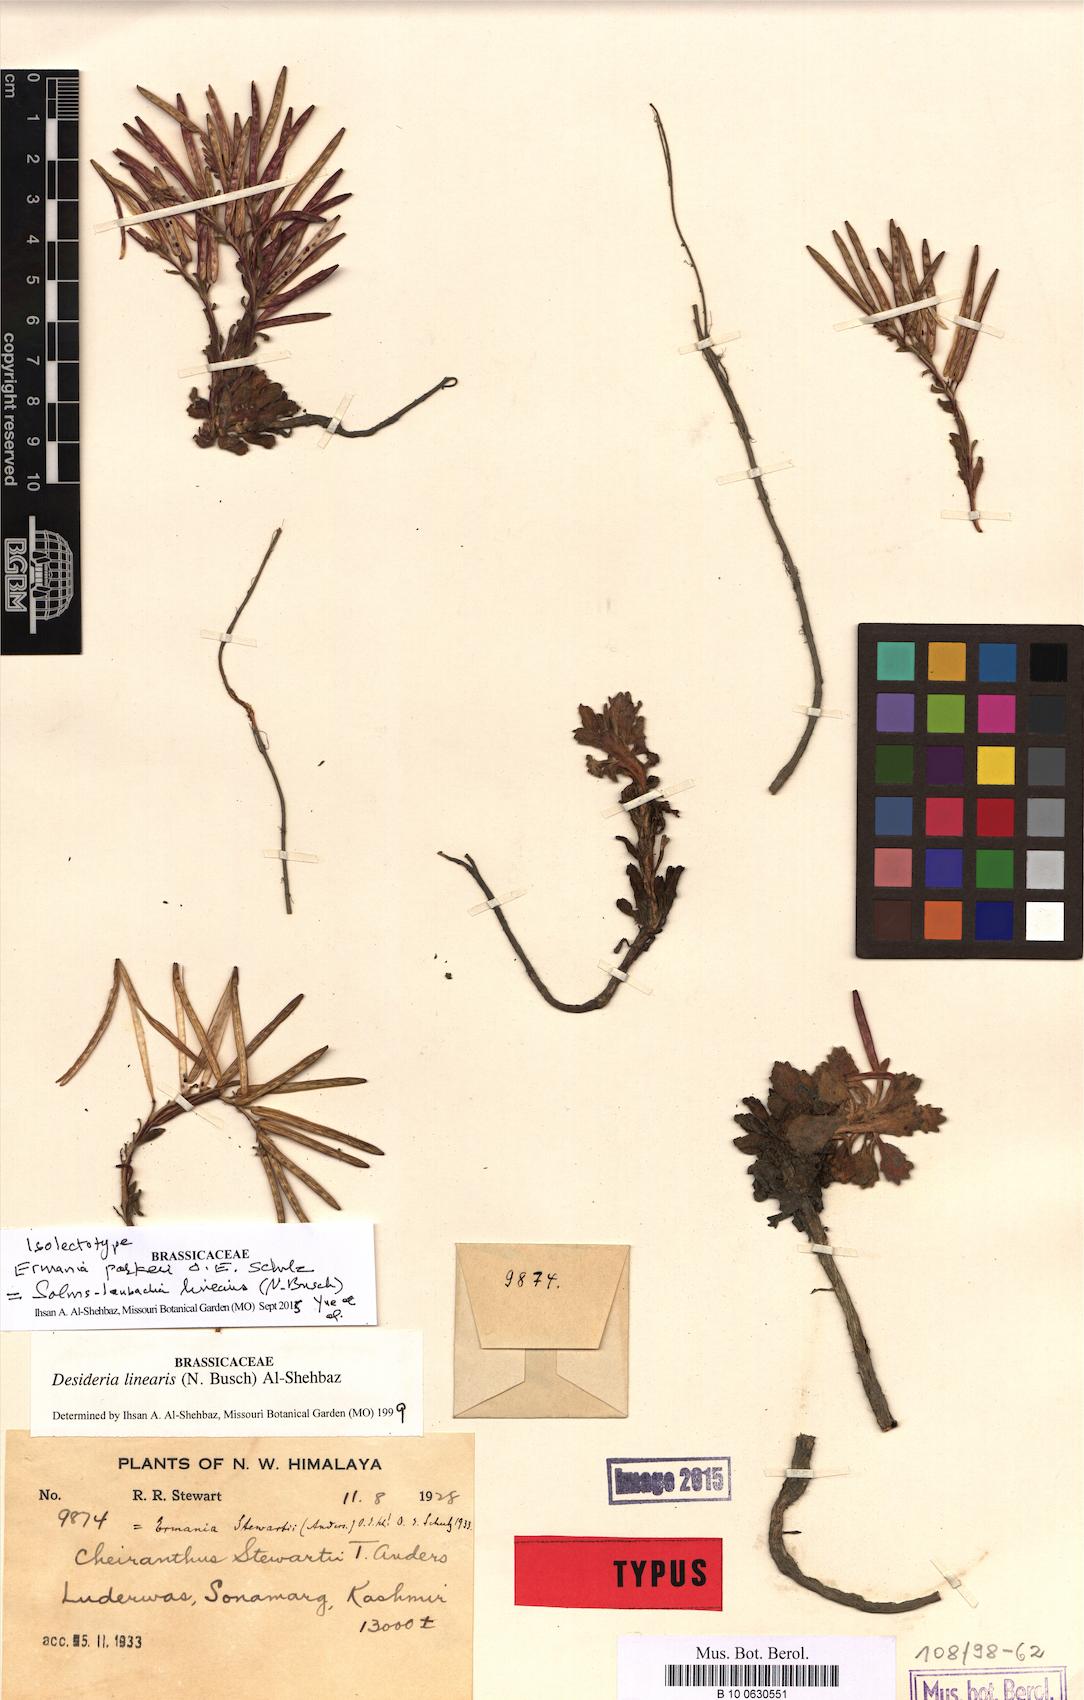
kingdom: Plantae
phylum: Tracheophyta
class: Magnoliopsida
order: Brassicales
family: Brassicaceae
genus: Solms-laubachia
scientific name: Solms-laubachia linearis
